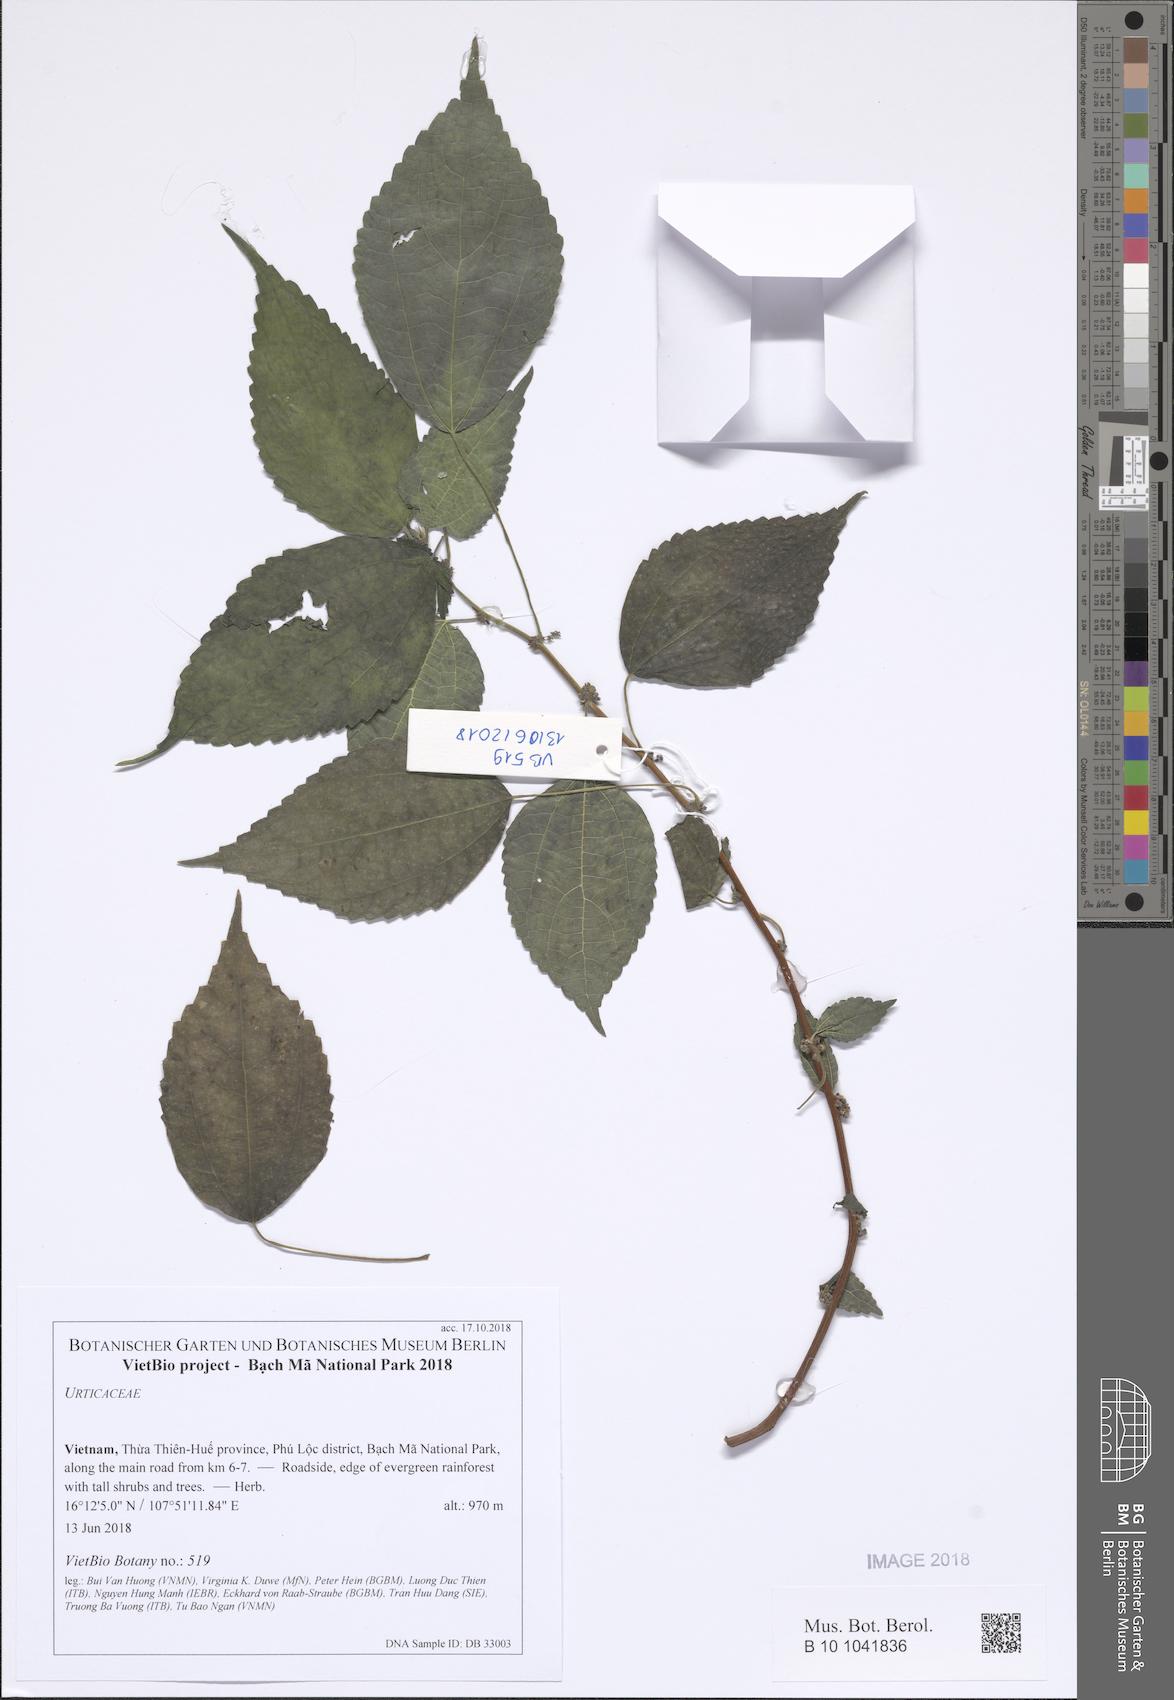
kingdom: Plantae
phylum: Tracheophyta
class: Magnoliopsida
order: Rosales
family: Urticaceae
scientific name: Urticaceae
